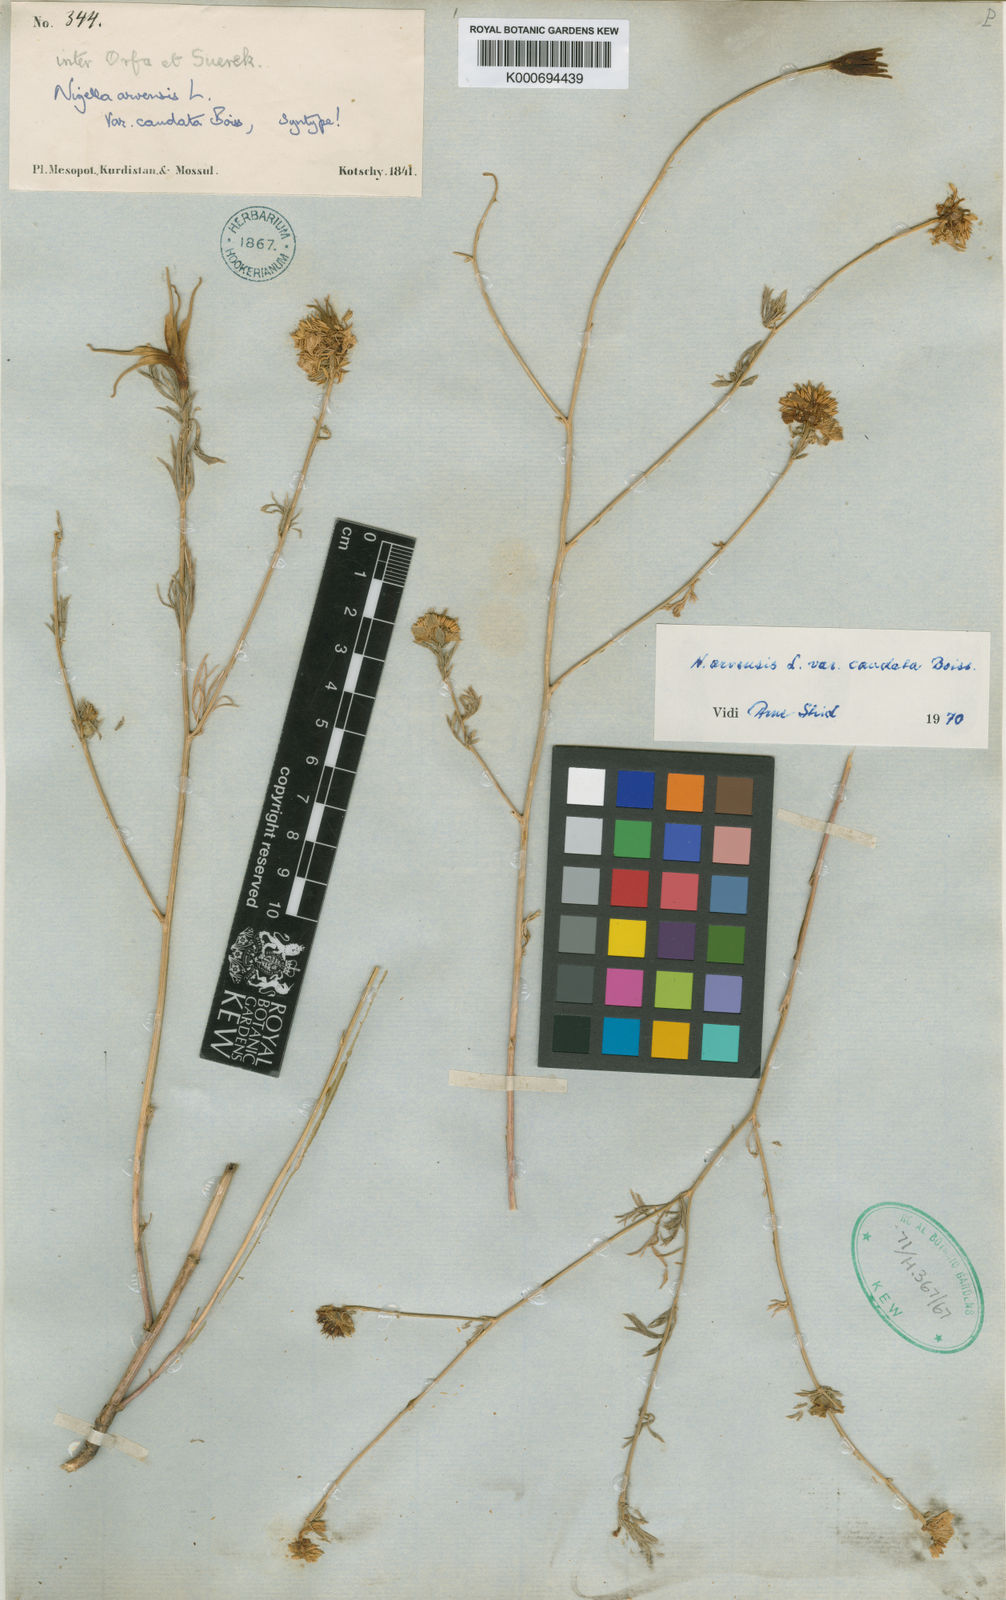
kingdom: Plantae
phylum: Tracheophyta
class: Magnoliopsida
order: Ranunculales
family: Ranunculaceae
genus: Nigella
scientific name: Nigella deserti
